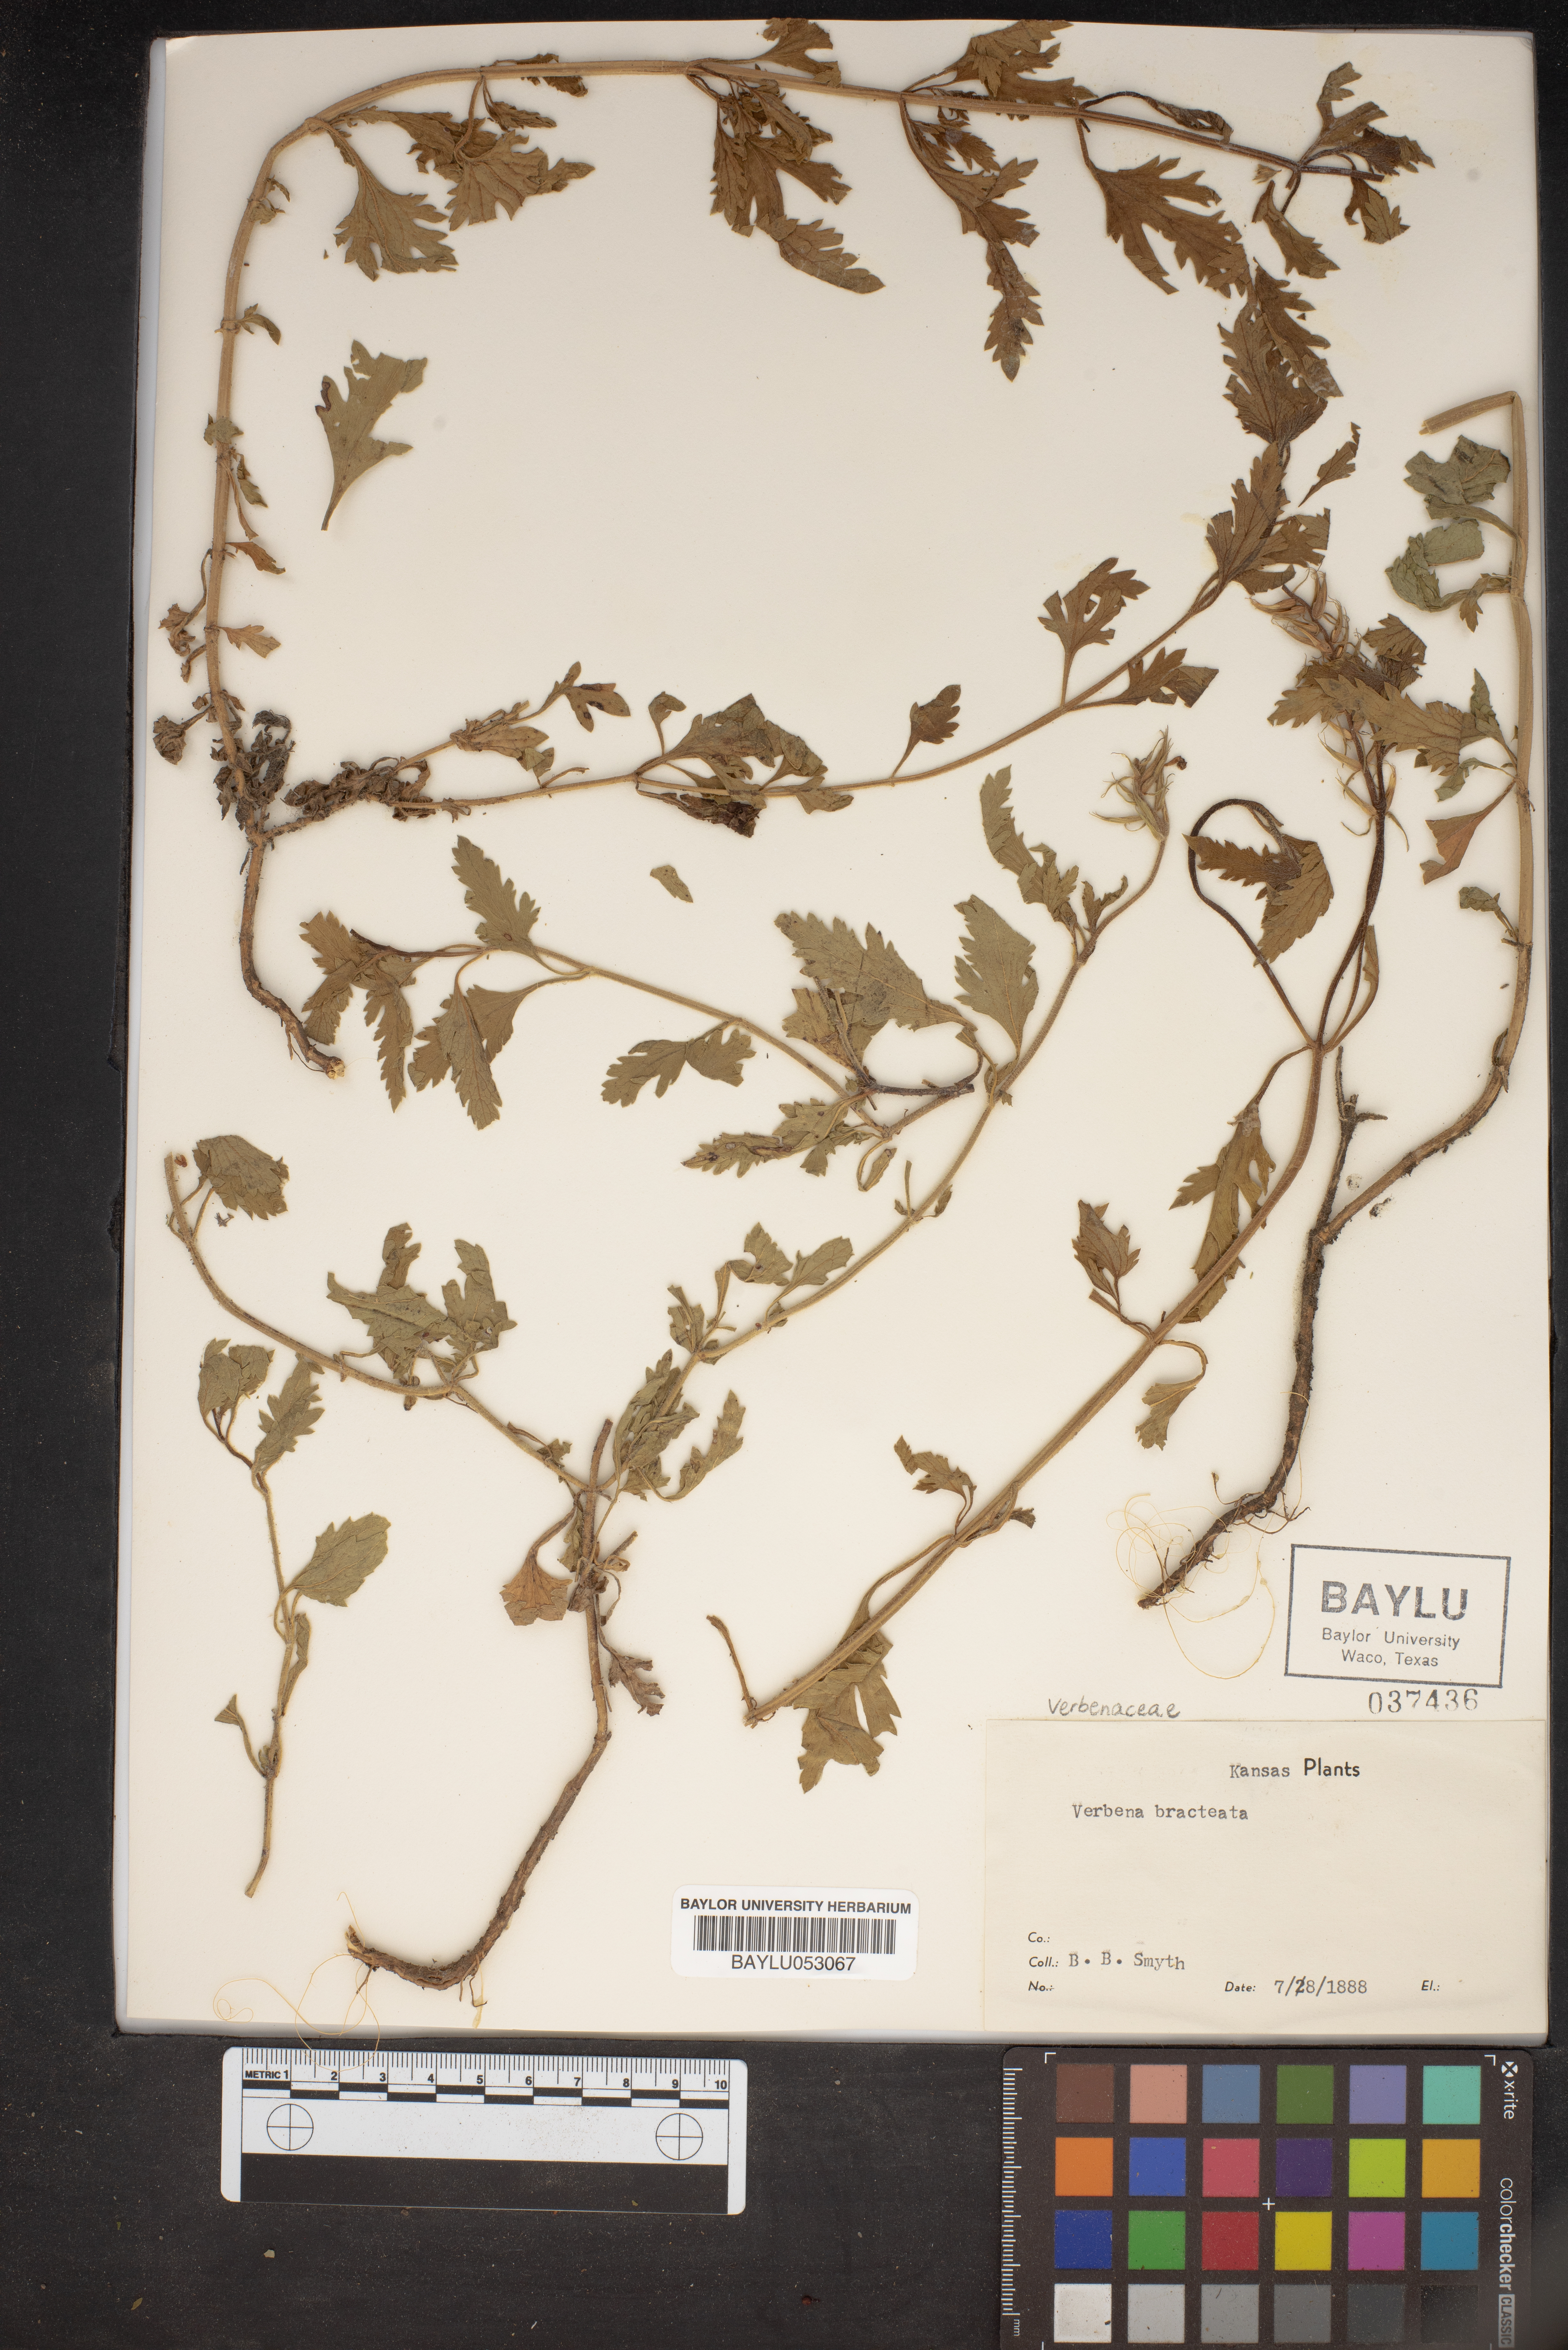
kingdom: Plantae
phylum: Tracheophyta
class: Magnoliopsida
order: Lamiales
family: Verbenaceae
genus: Verbena
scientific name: Verbena bracteata
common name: Bracted vervain
